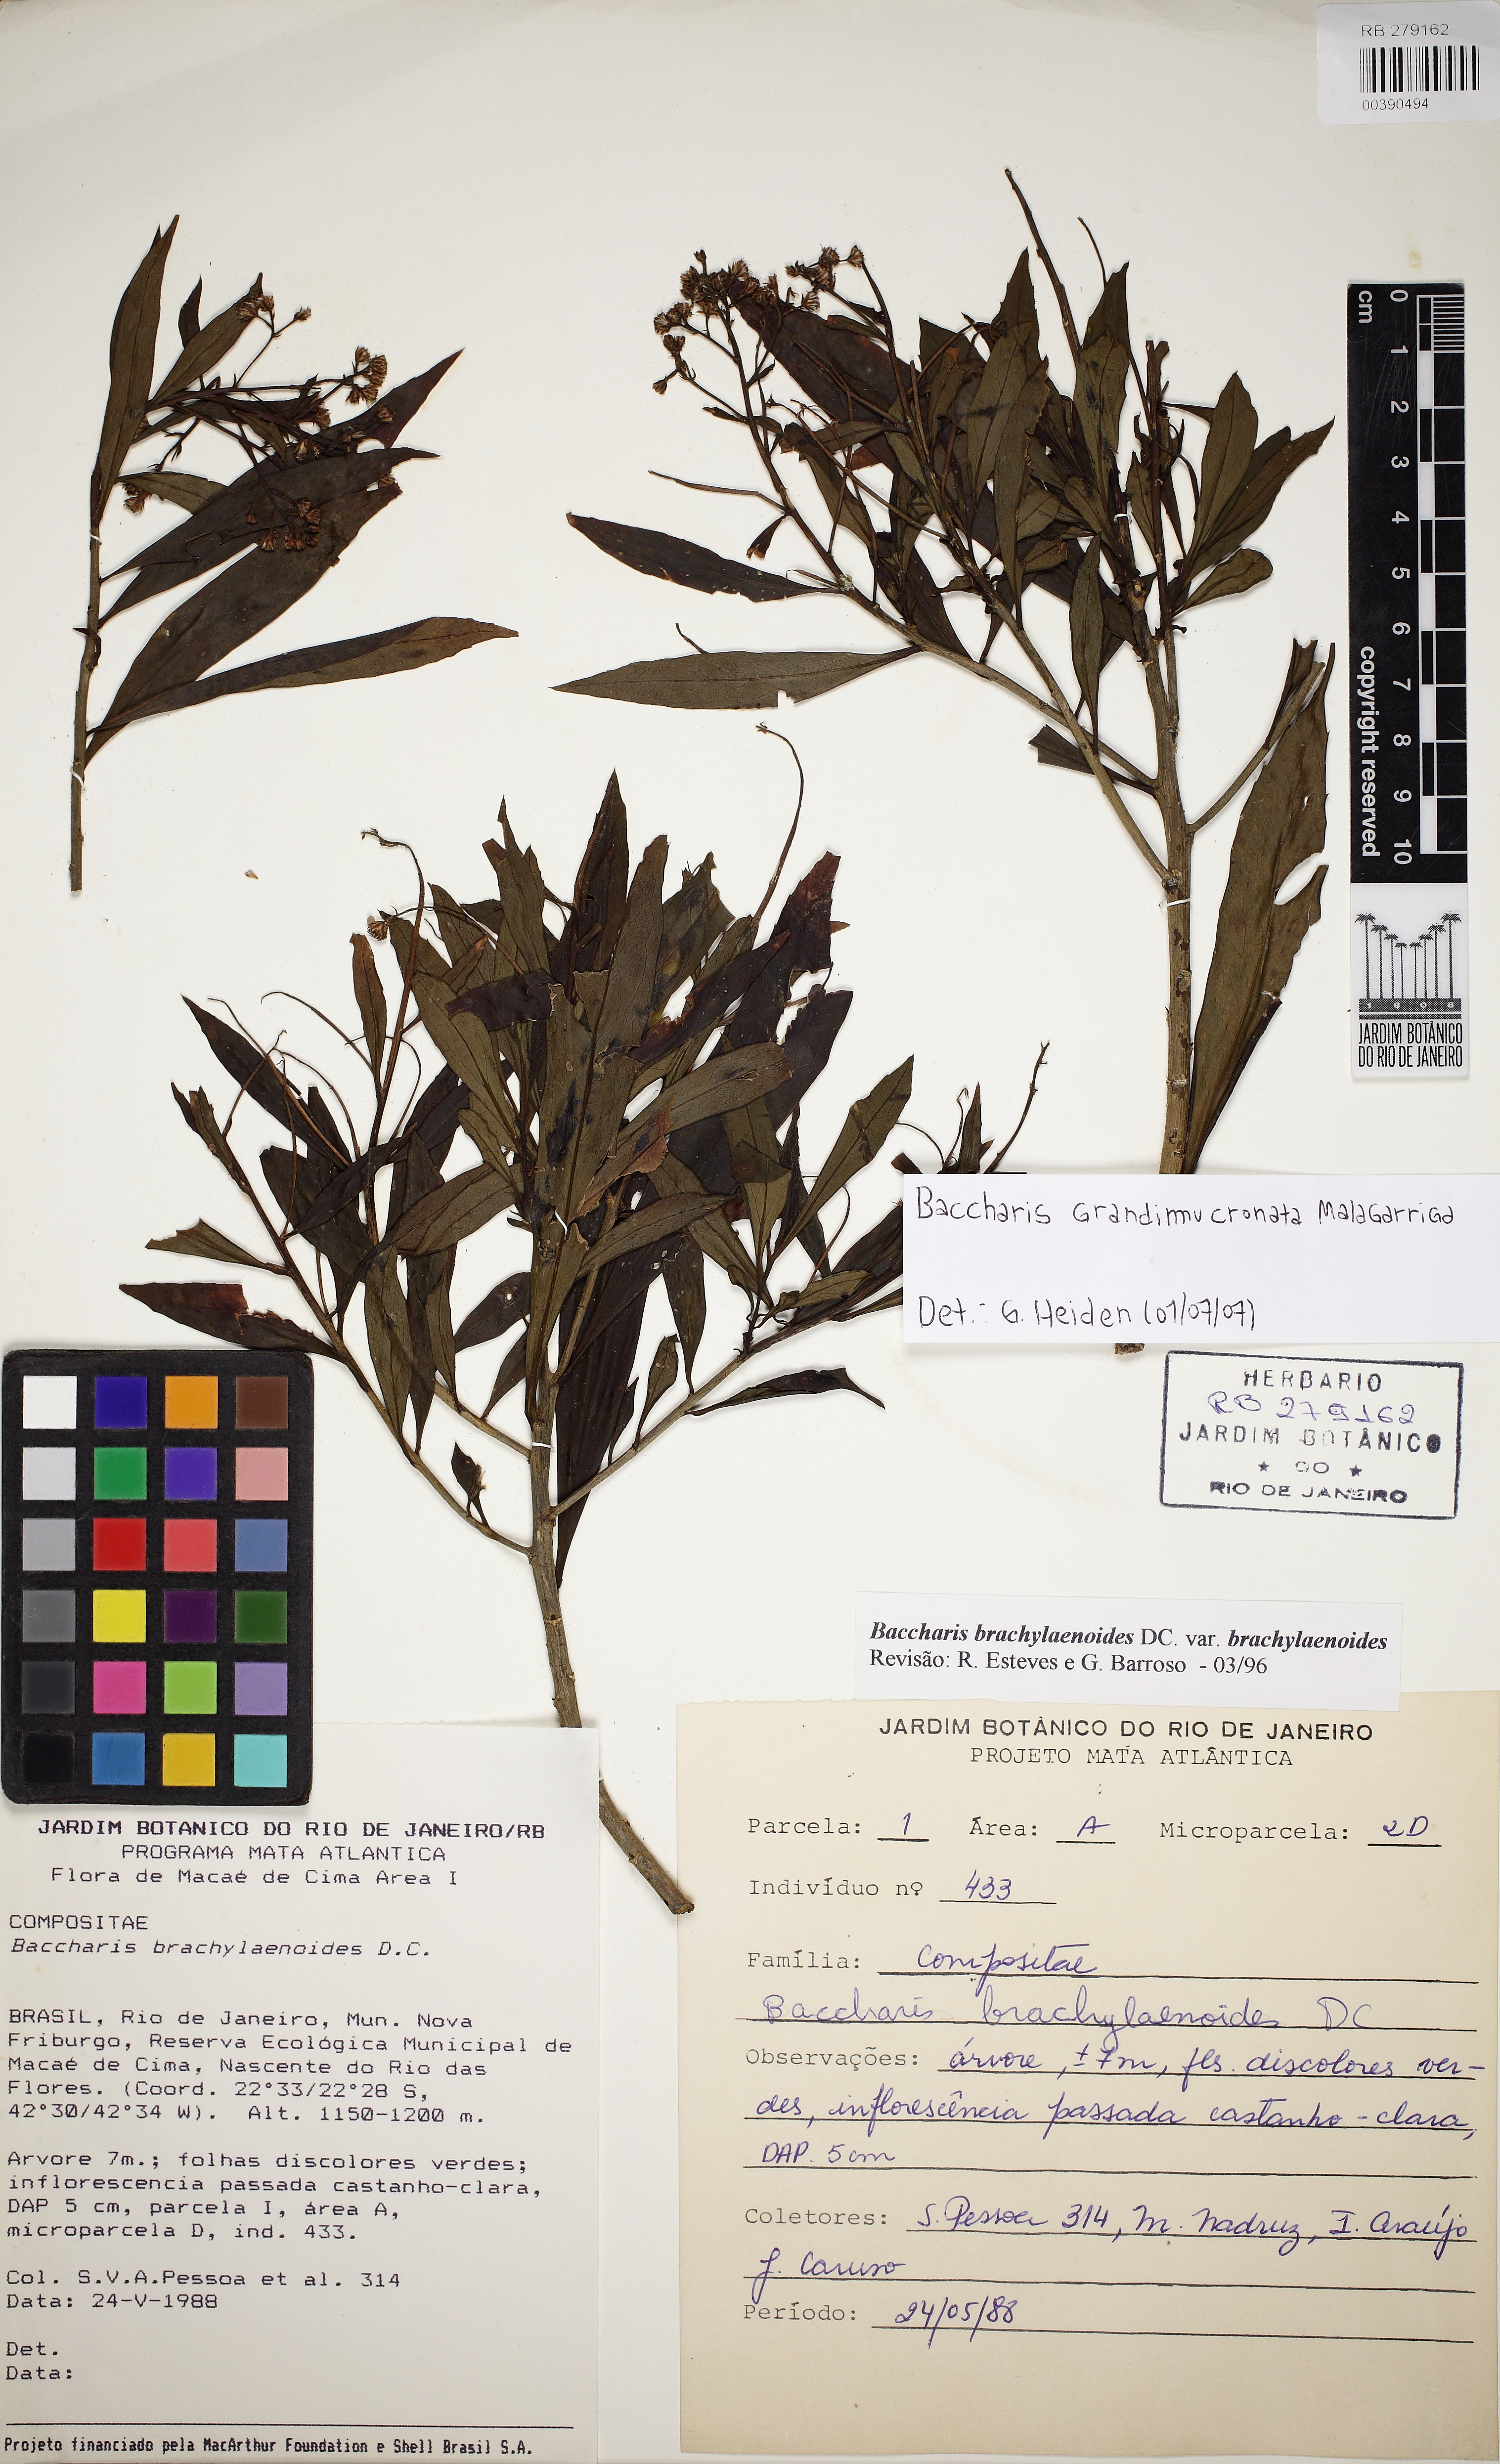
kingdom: Plantae
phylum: Tracheophyta
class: Magnoliopsida
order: Asterales
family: Asteraceae
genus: Baccharis
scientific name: Baccharis grandimucronata
